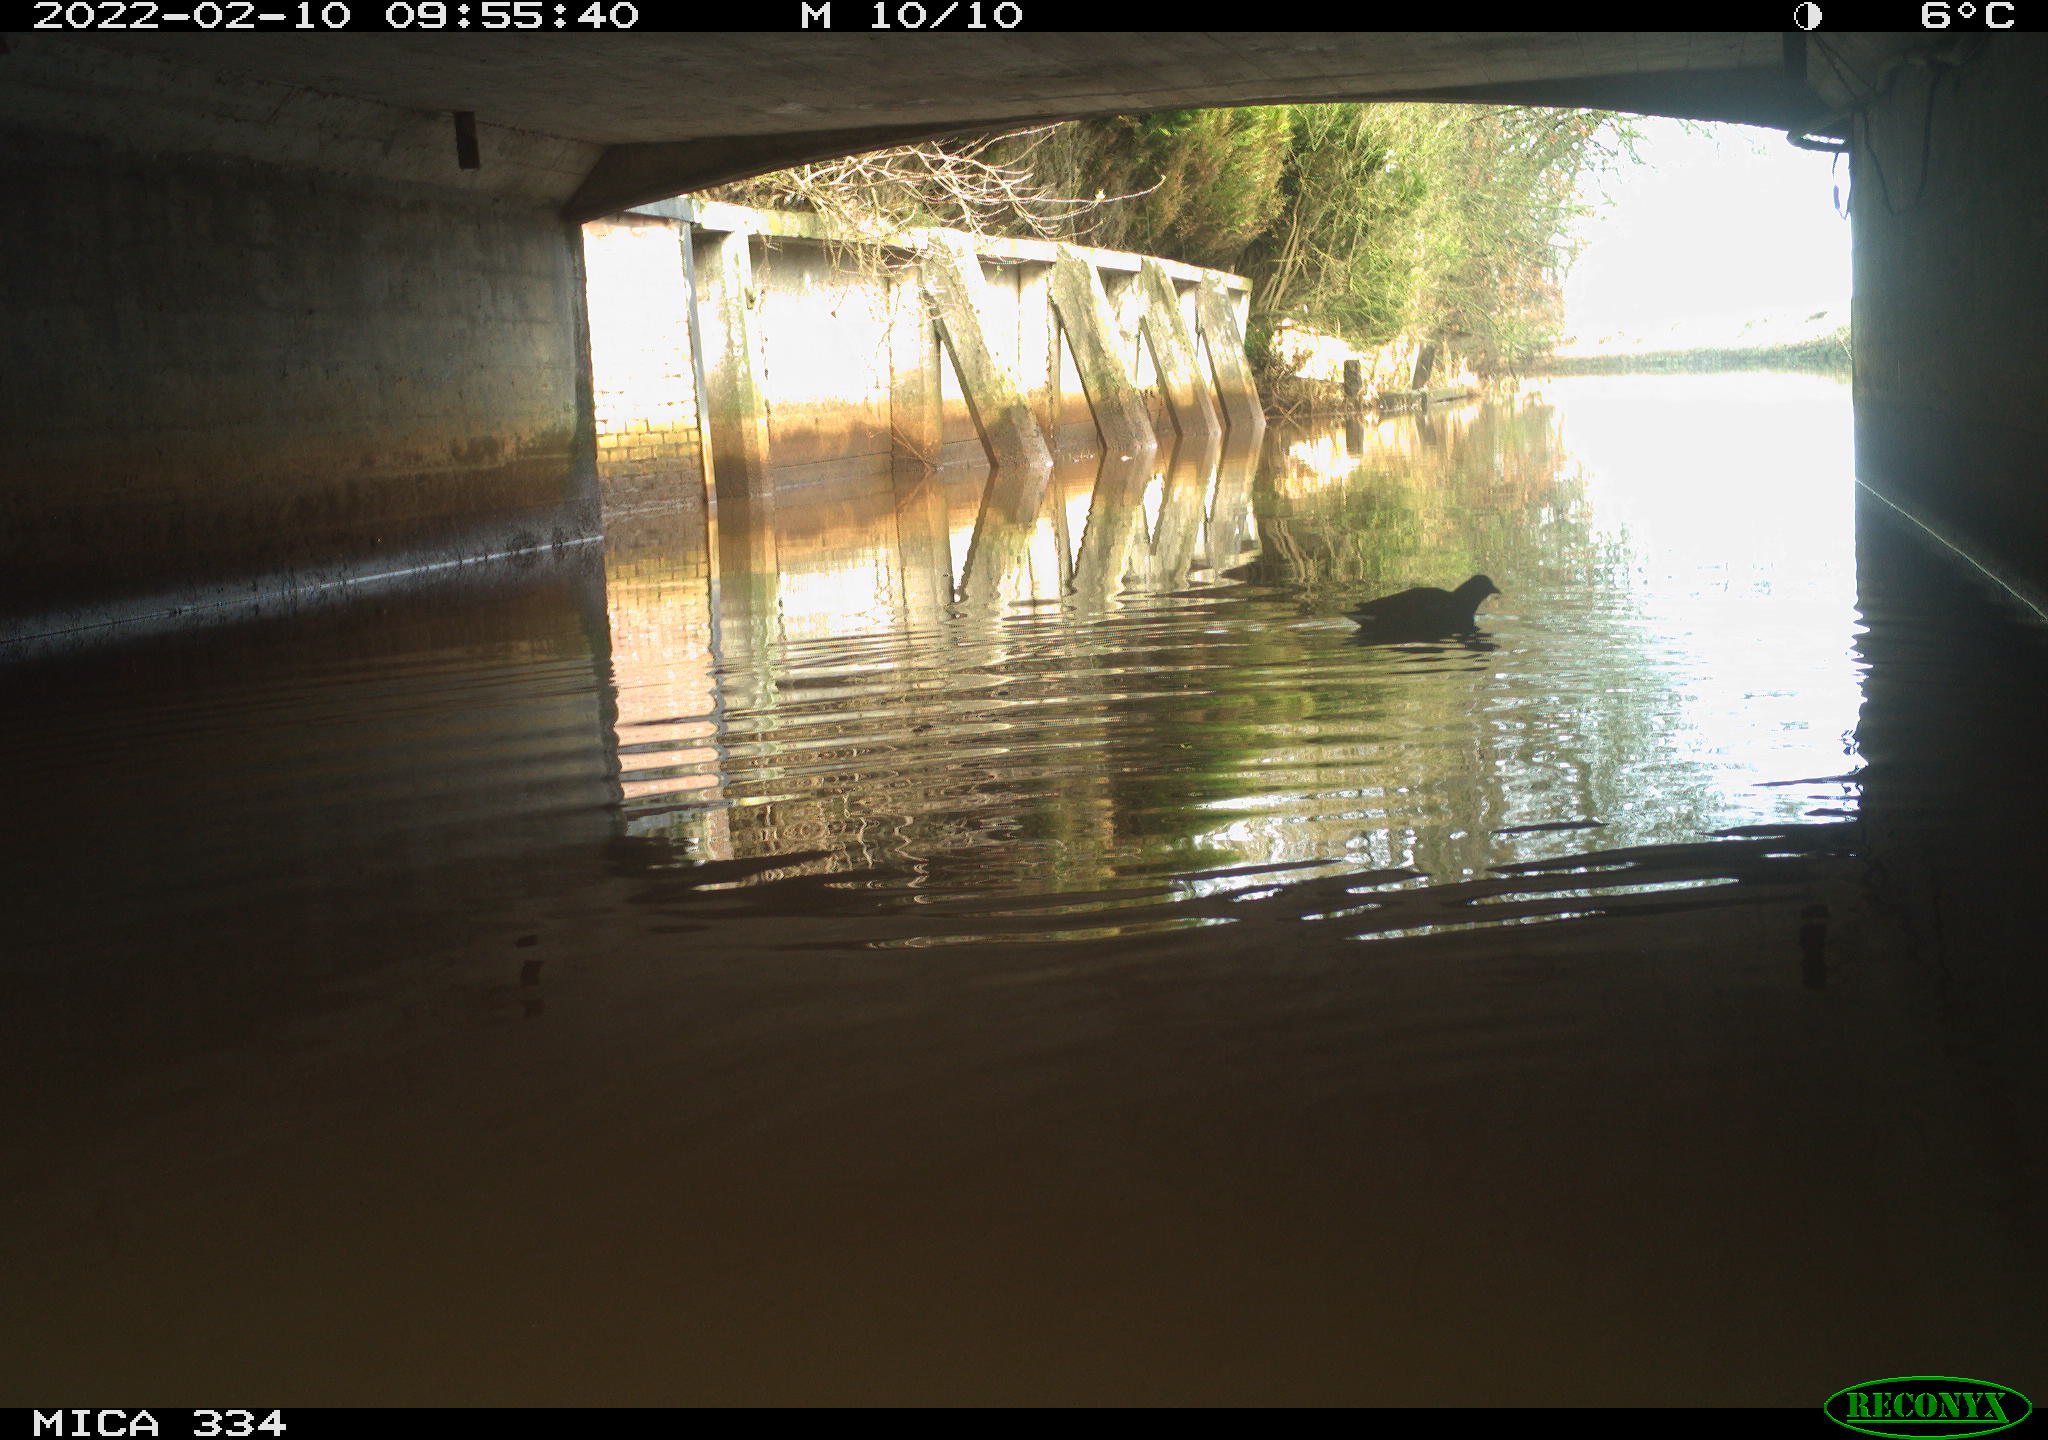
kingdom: Animalia
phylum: Chordata
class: Aves
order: Gruiformes
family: Rallidae
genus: Gallinula
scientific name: Gallinula chloropus
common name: Common moorhen
